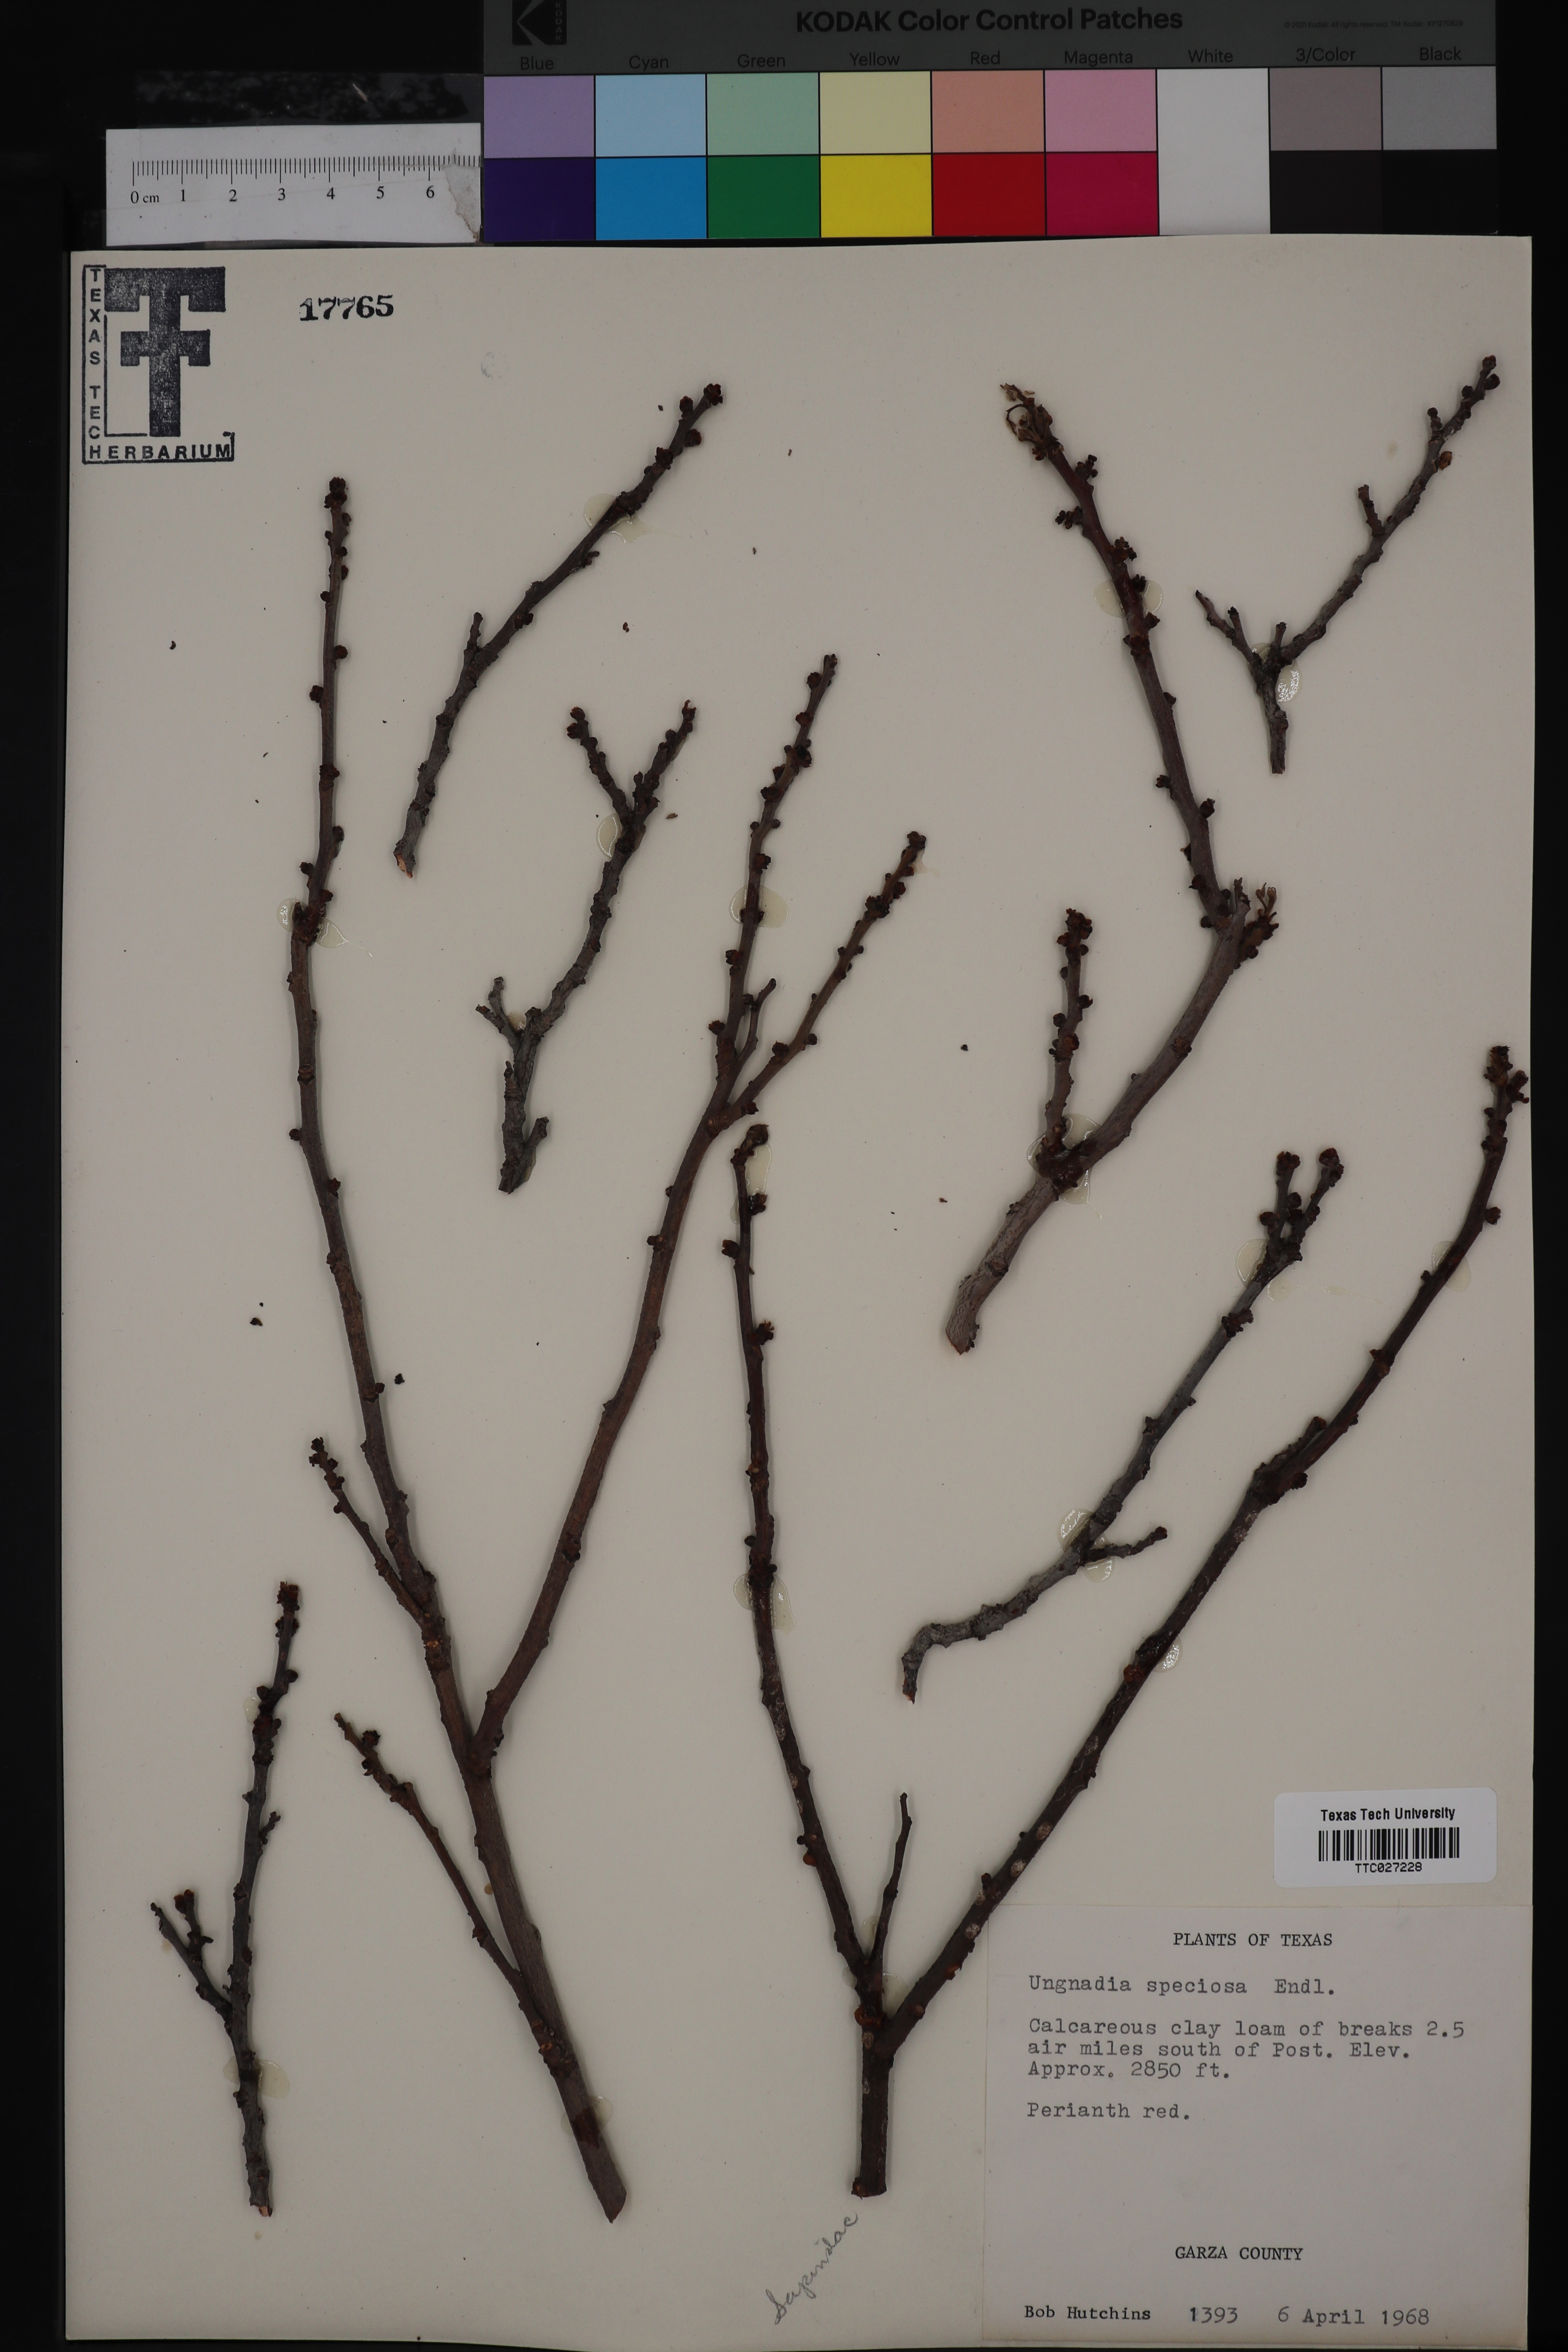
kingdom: Plantae
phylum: Tracheophyta
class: Magnoliopsida
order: Sapindales
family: Sapindaceae
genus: Ungnadia
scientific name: Ungnadia speciosa
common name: Texas-buckeye
